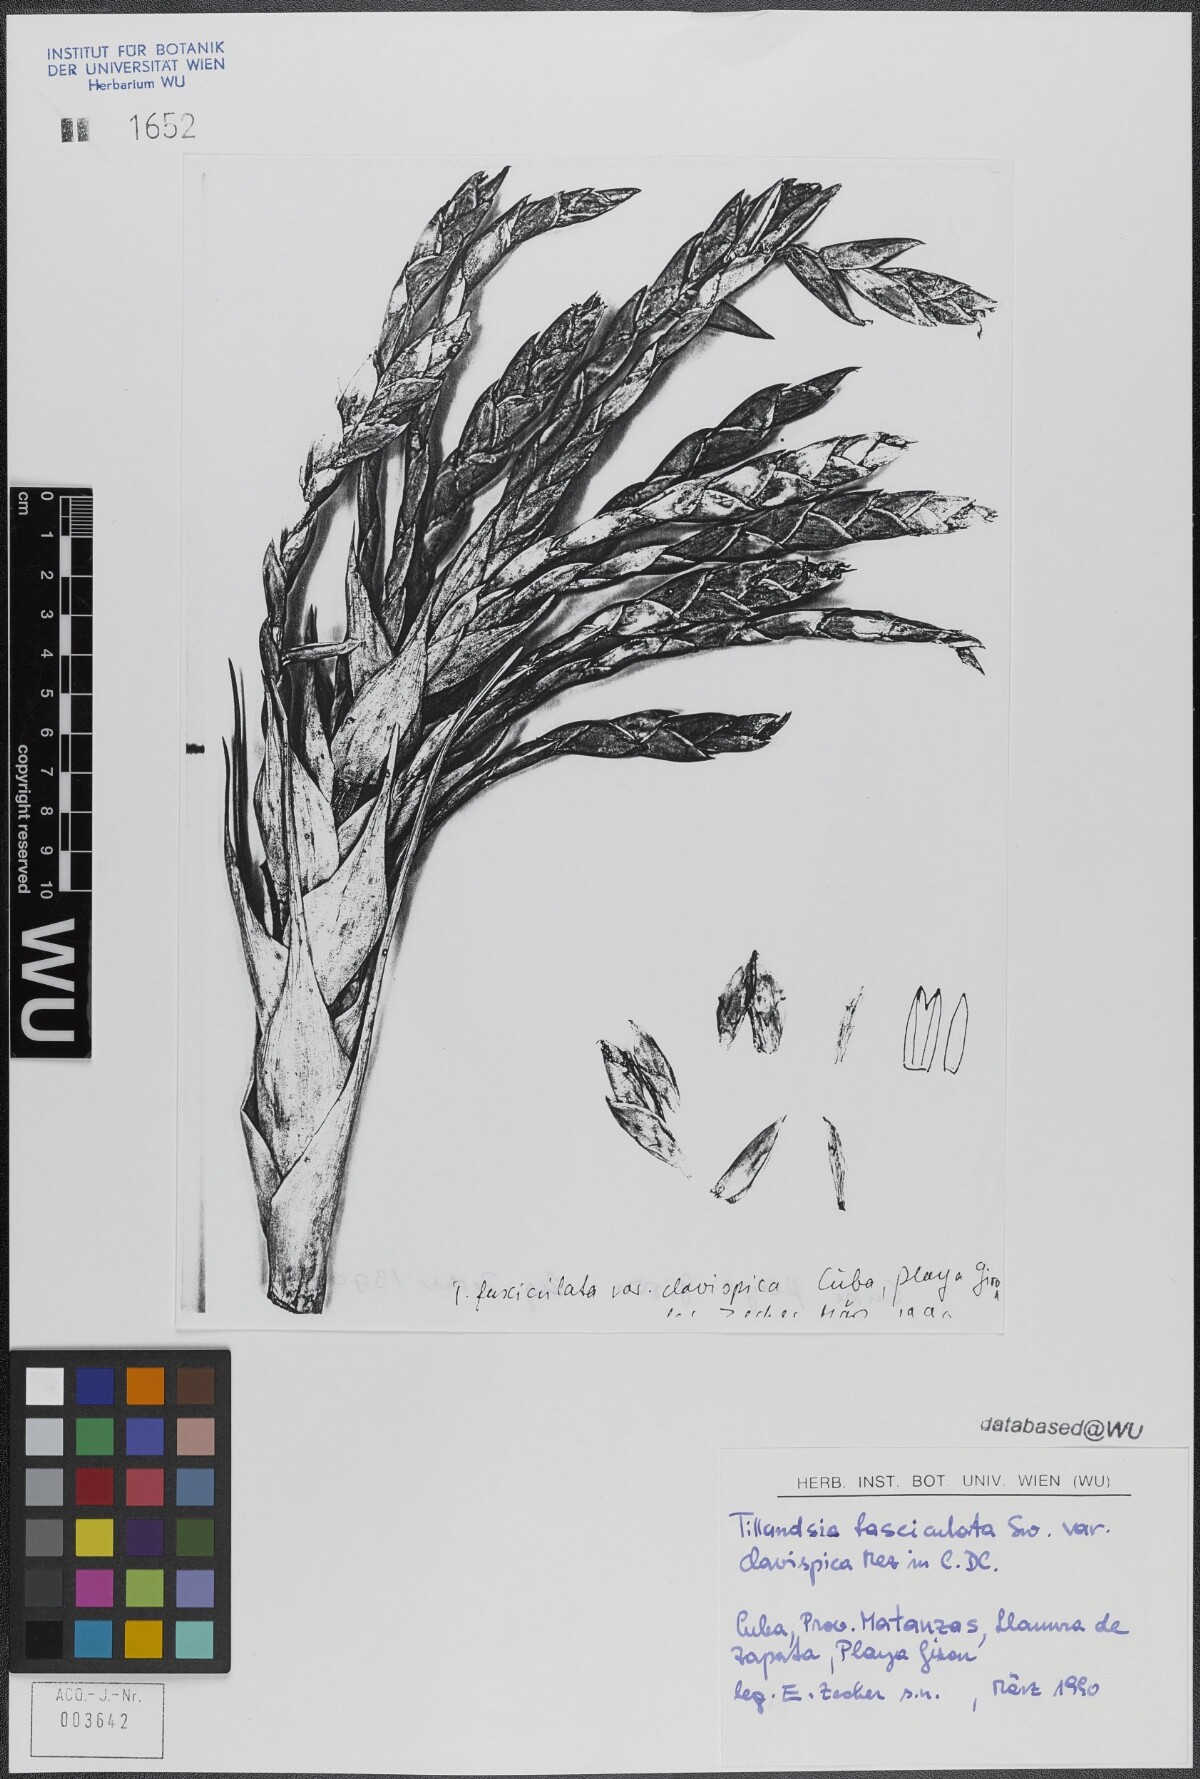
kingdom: Plantae
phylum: Tracheophyta
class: Liliopsida
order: Poales
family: Bromeliaceae
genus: Tillandsia
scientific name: Tillandsia fasciculata
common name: Giant airplant
